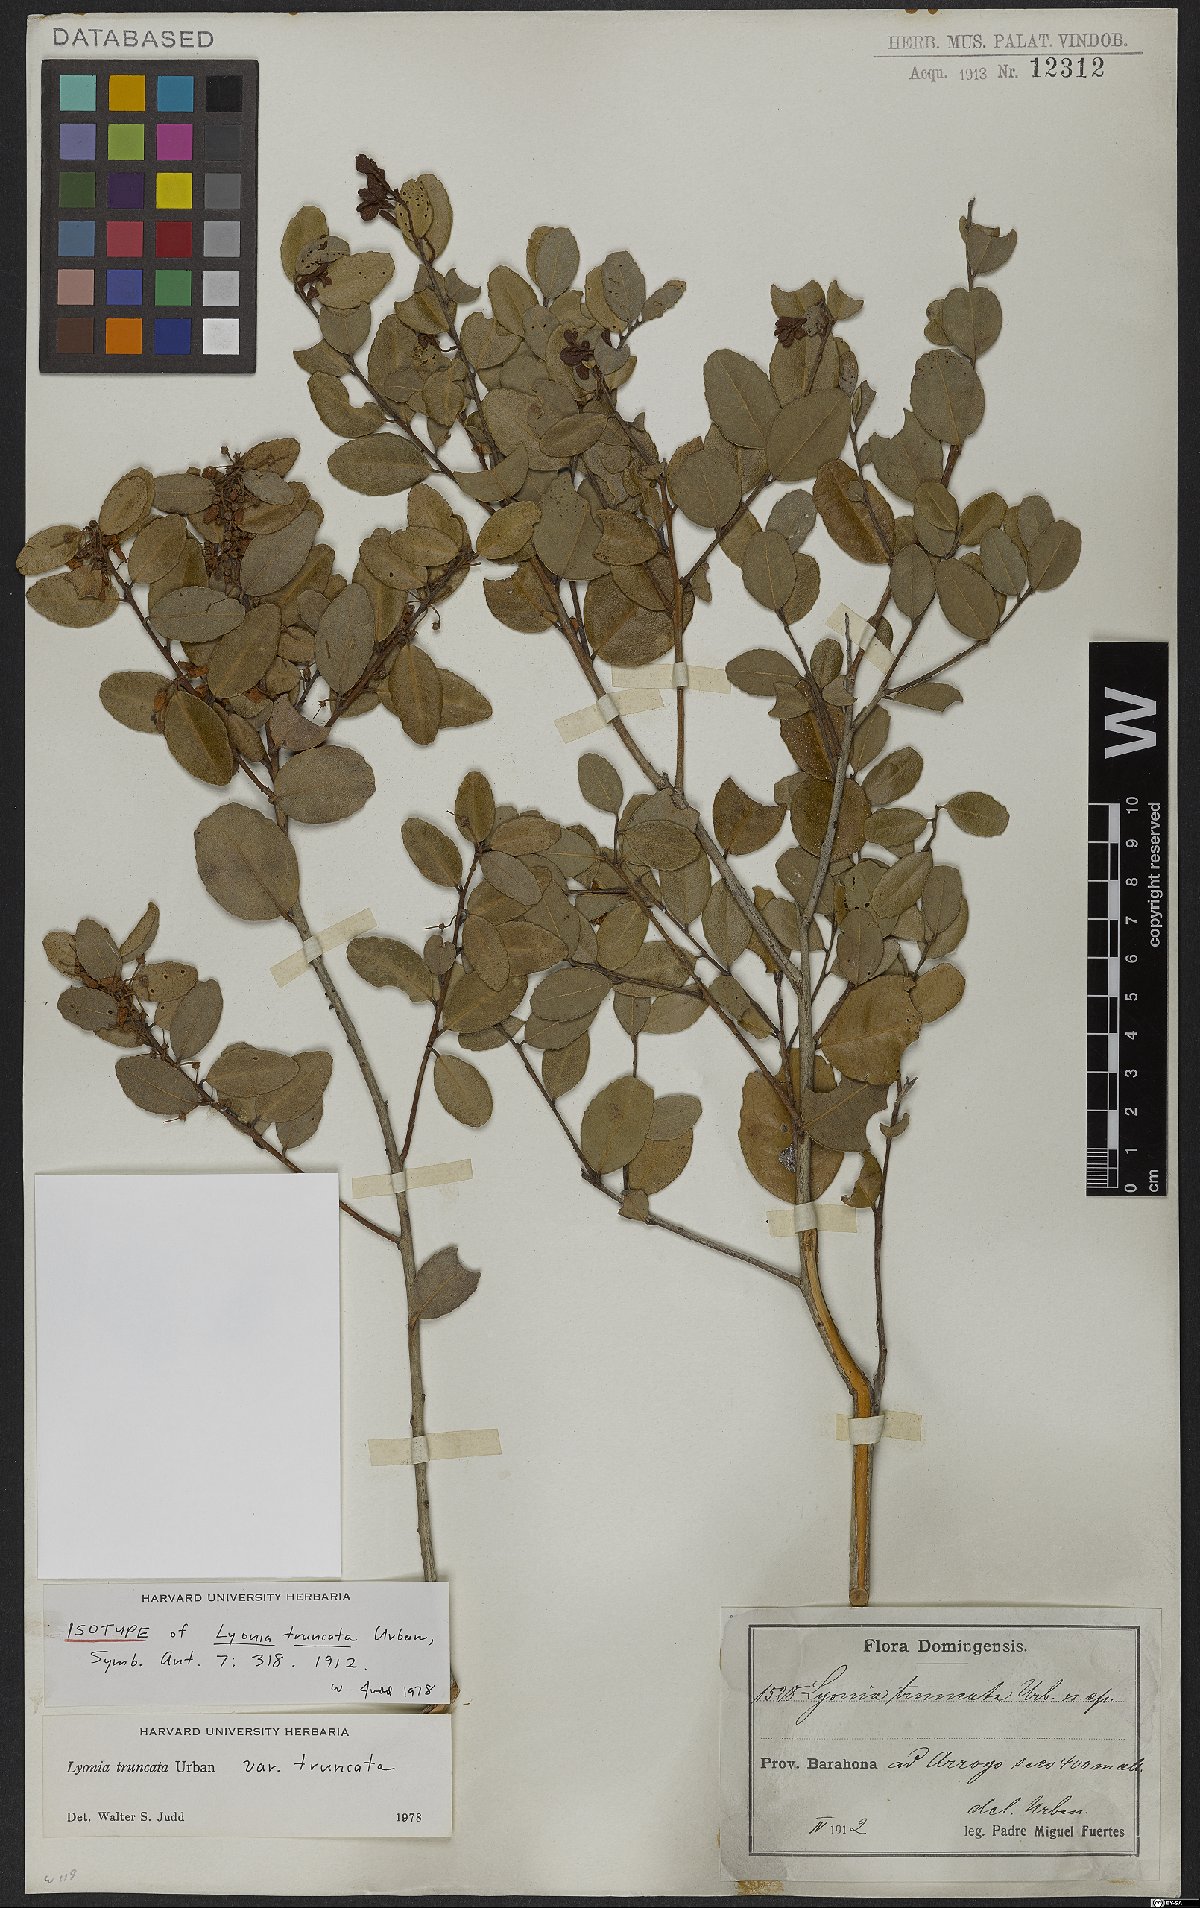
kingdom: Plantae
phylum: Tracheophyta
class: Magnoliopsida
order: Ericales
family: Ericaceae
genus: Lyonia
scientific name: Lyonia truncata
